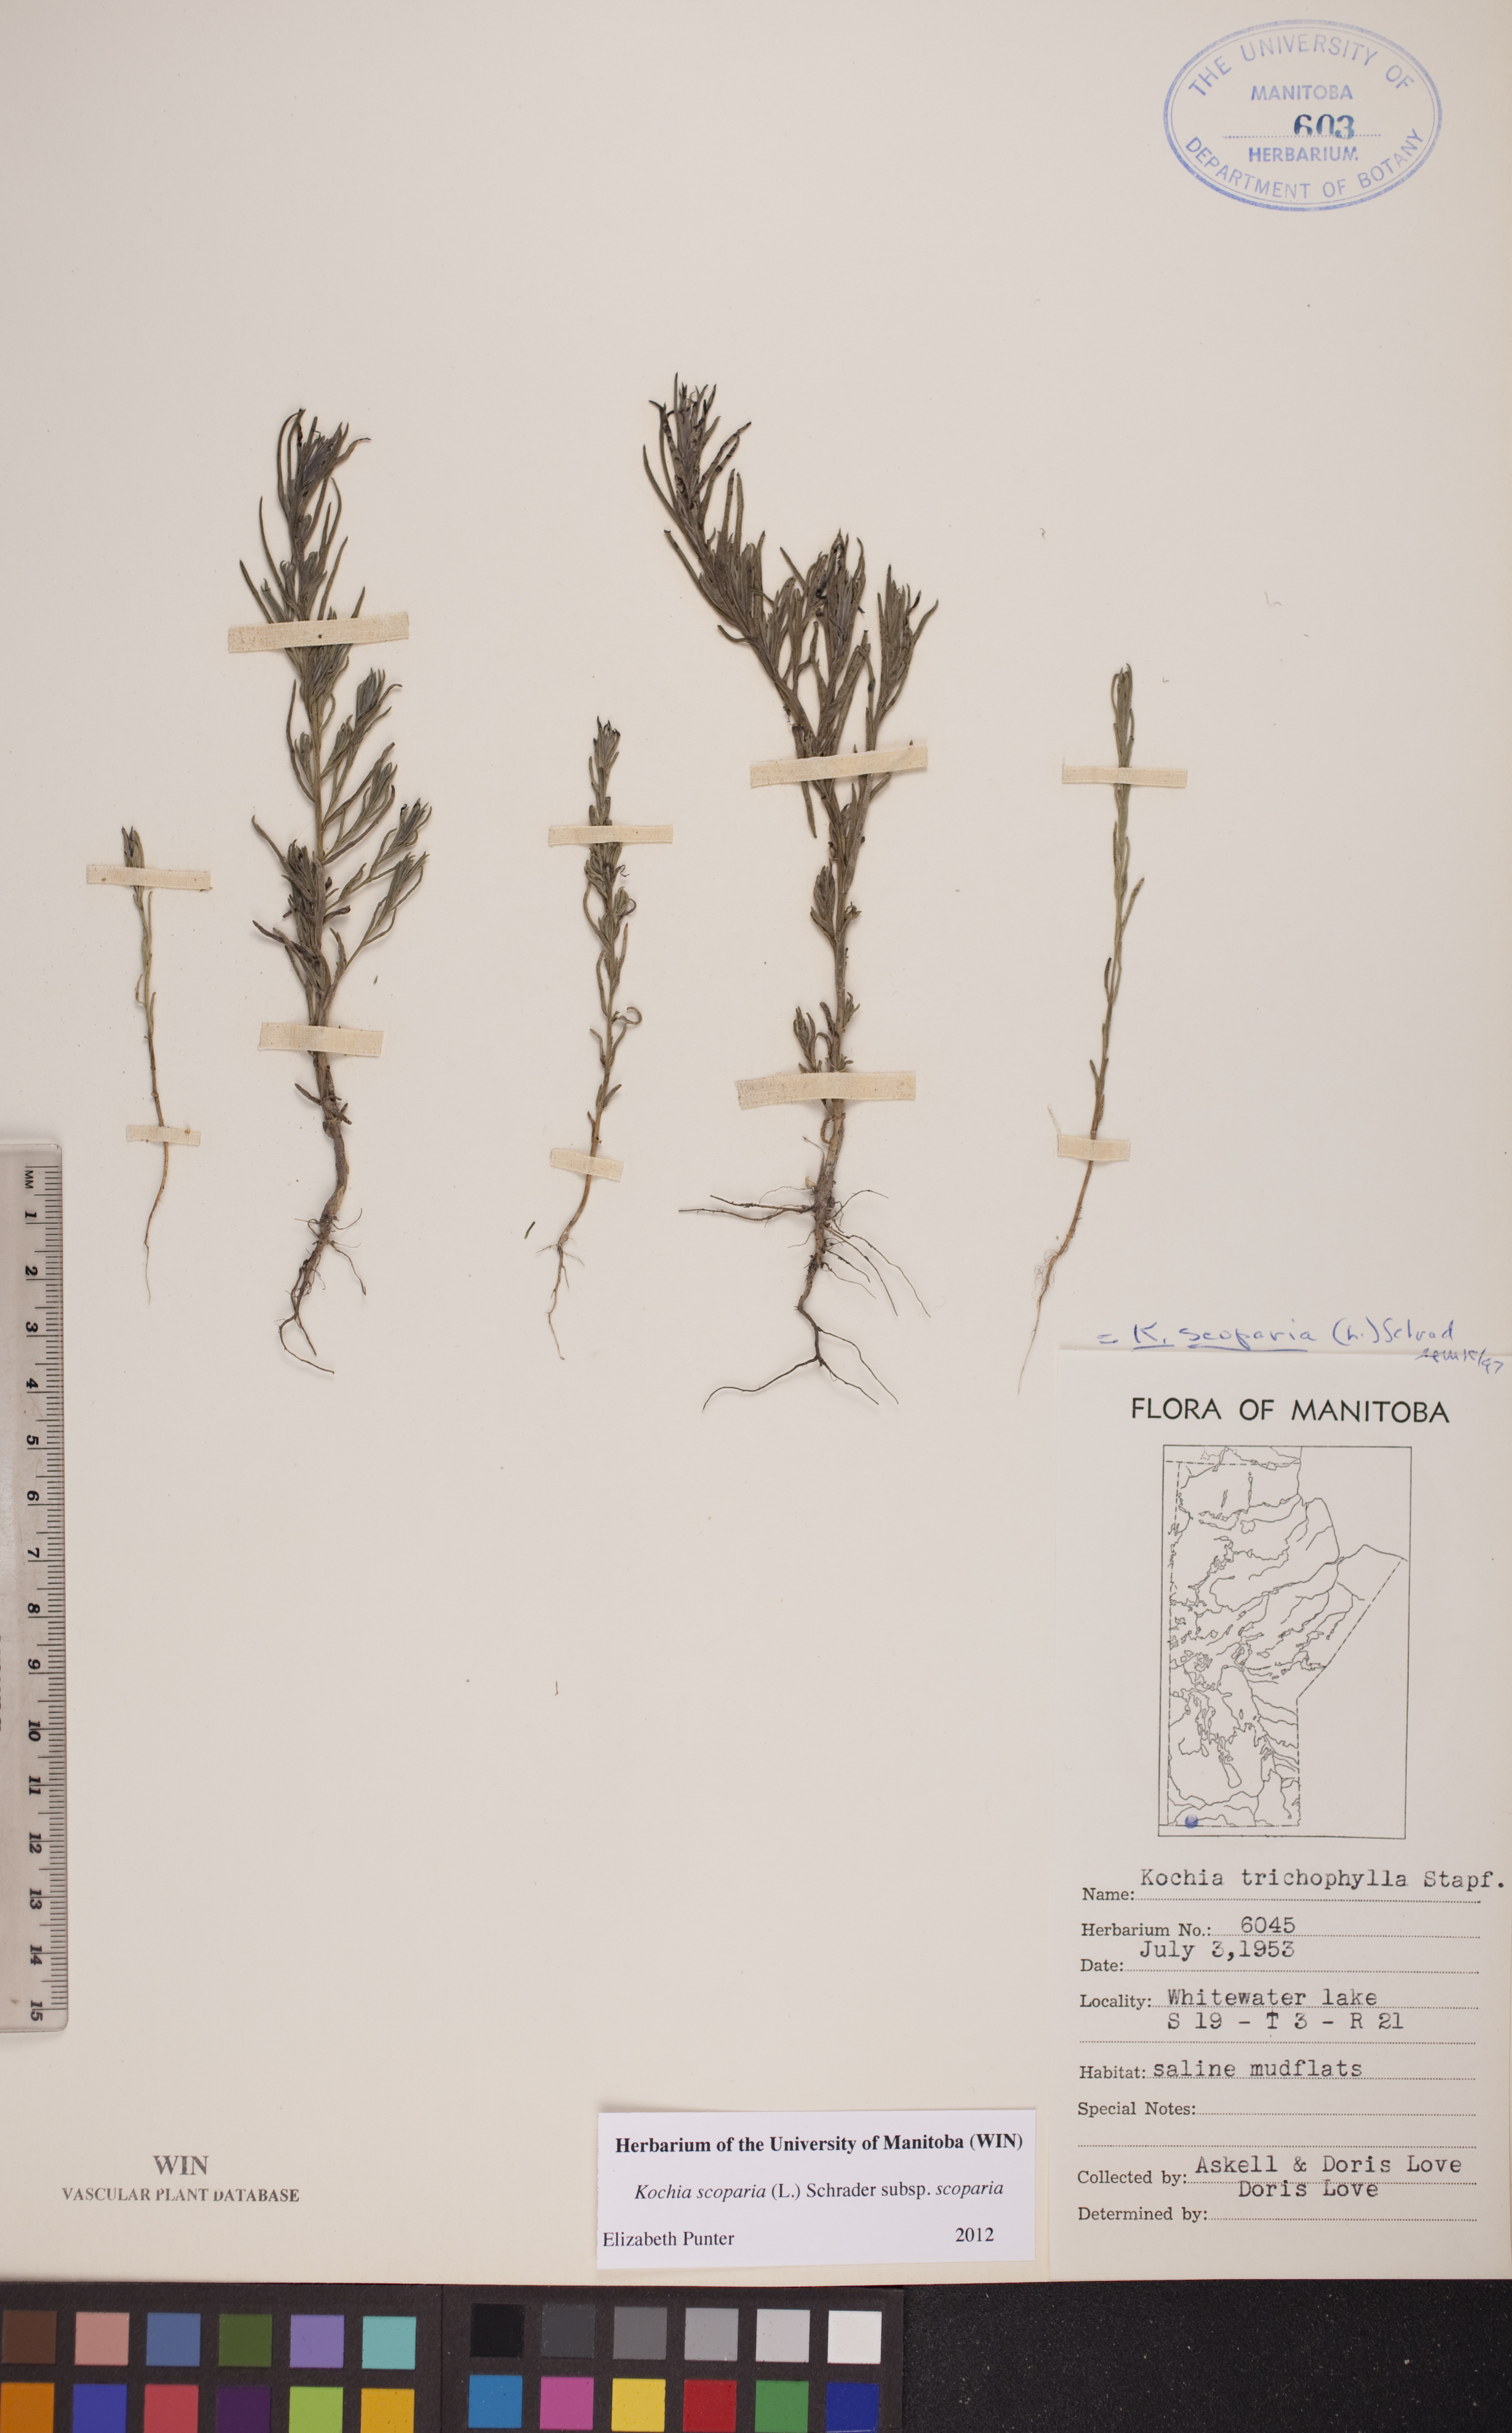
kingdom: Plantae
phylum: Tracheophyta
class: Magnoliopsida
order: Caryophyllales
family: Amaranthaceae
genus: Bassia
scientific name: Bassia scoparia
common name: Belvedere
